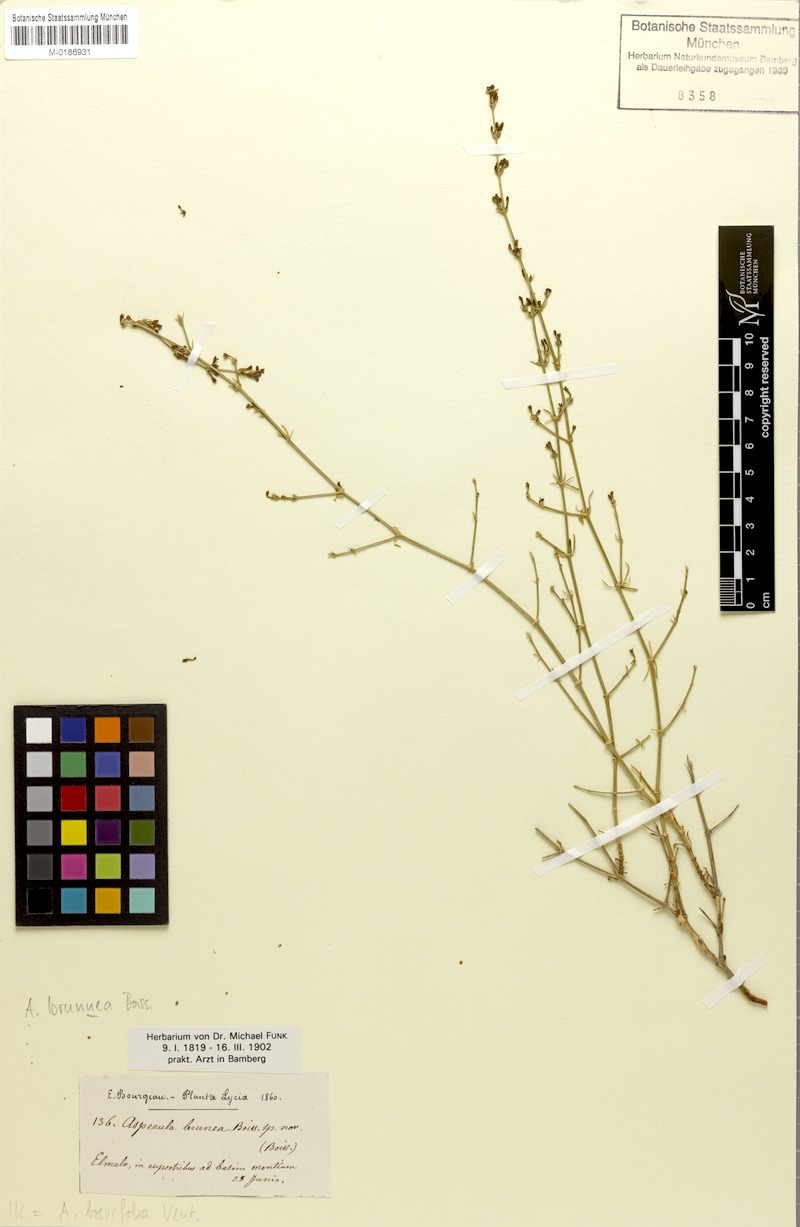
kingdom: Plantae
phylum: Tracheophyta
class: Magnoliopsida
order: Gentianales
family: Rubiaceae
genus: Thliphthisa
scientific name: Thliphthisa brevifolia
